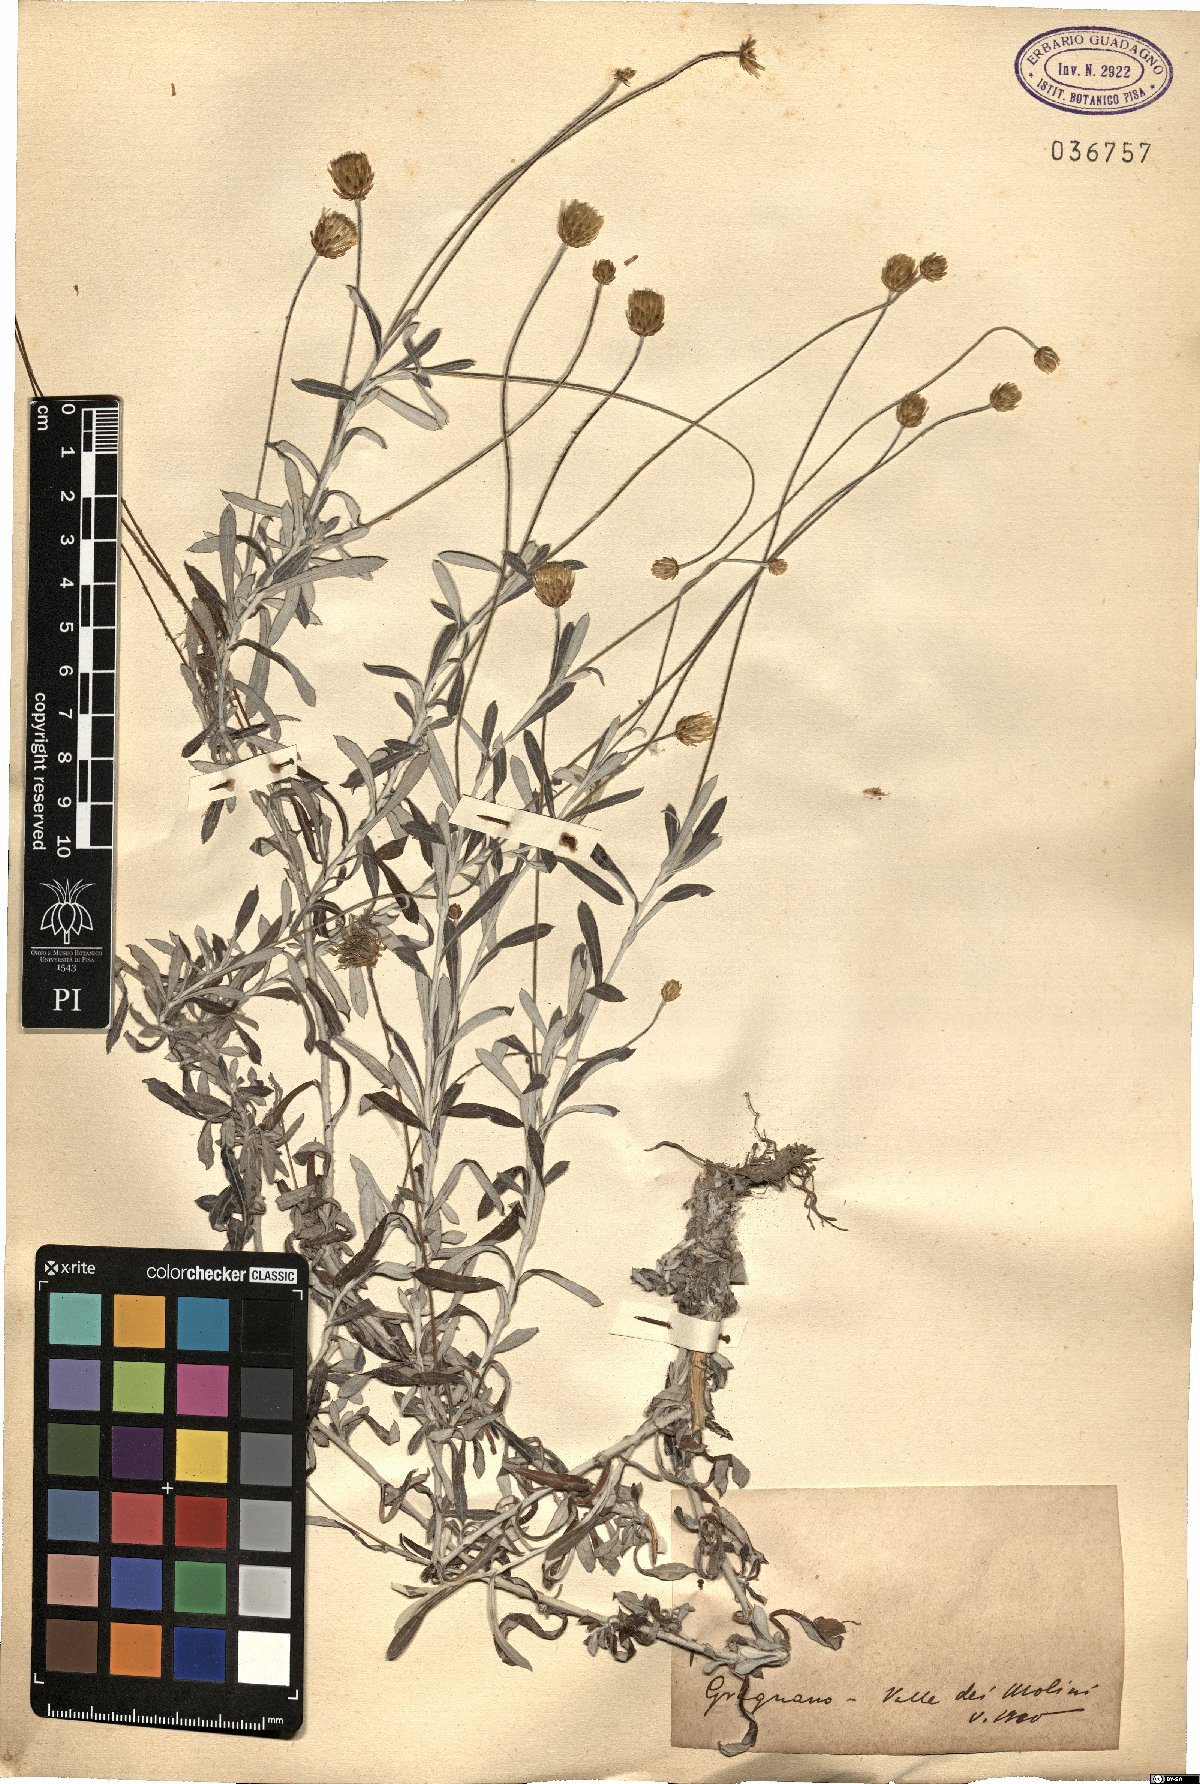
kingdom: Plantae
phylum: Tracheophyta
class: Magnoliopsida
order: Asterales
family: Asteraceae
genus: Phagnalon
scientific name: Phagnalon
